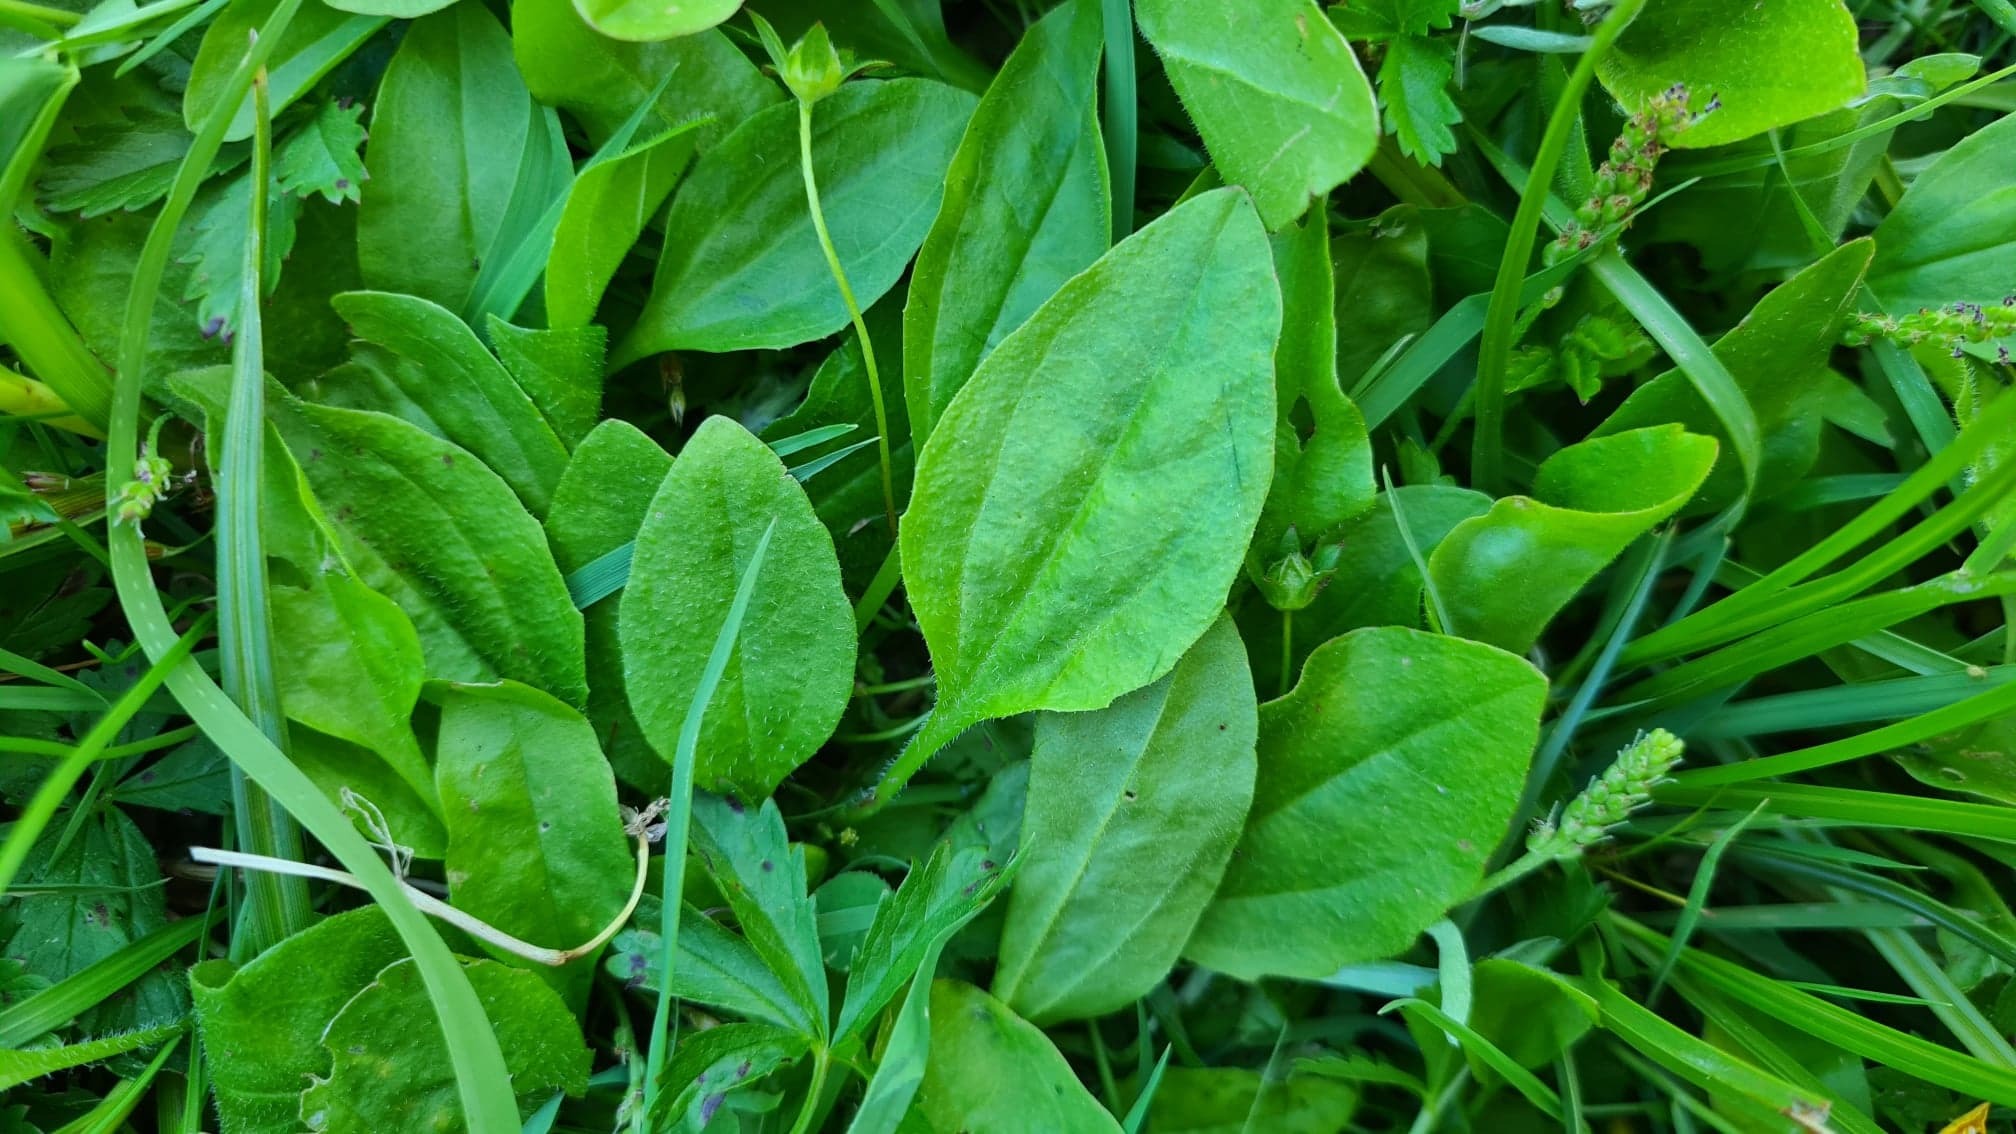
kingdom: Plantae
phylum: Tracheophyta
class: Magnoliopsida
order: Lamiales
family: Plantaginaceae
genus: Plantago
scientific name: Plantago major
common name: Glat vejbred
